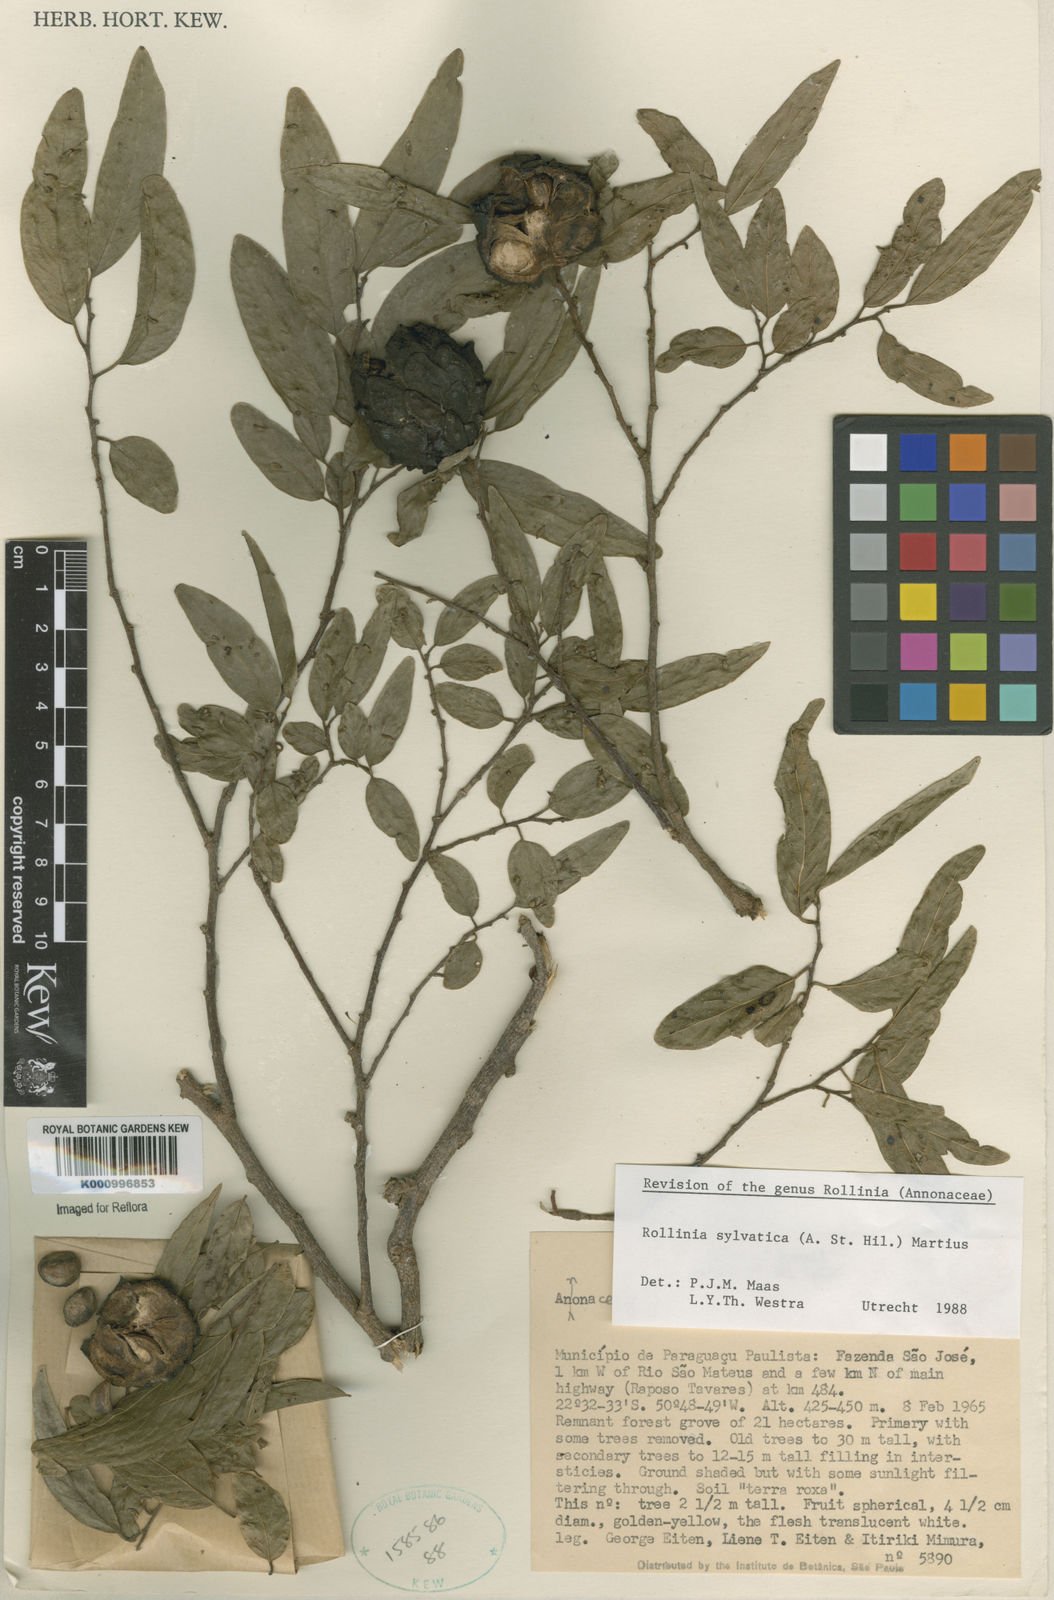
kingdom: Plantae
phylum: Tracheophyta
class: Magnoliopsida
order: Magnoliales
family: Annonaceae
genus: Annona
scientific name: Annona sylvatica
